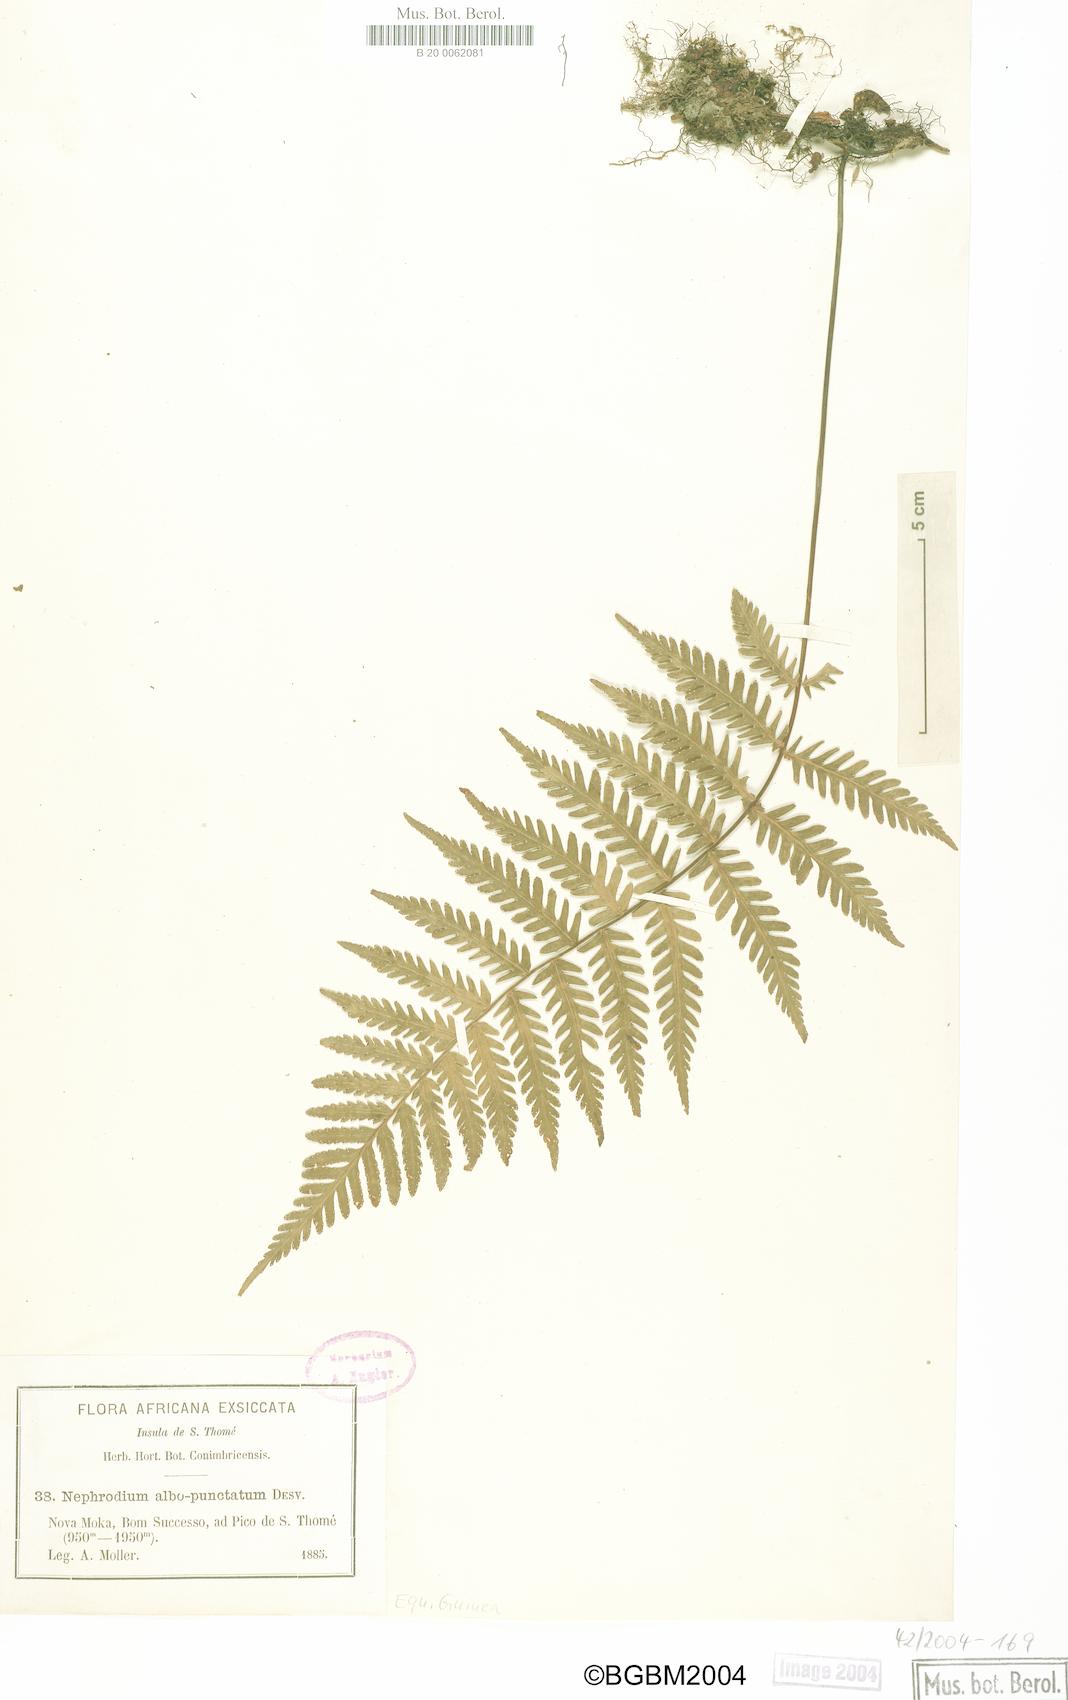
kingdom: Plantae
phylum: Tracheophyta
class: Polypodiopsida
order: Polypodiales
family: Tectariaceae
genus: Arthropteris
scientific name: Arthropteris orientalis
